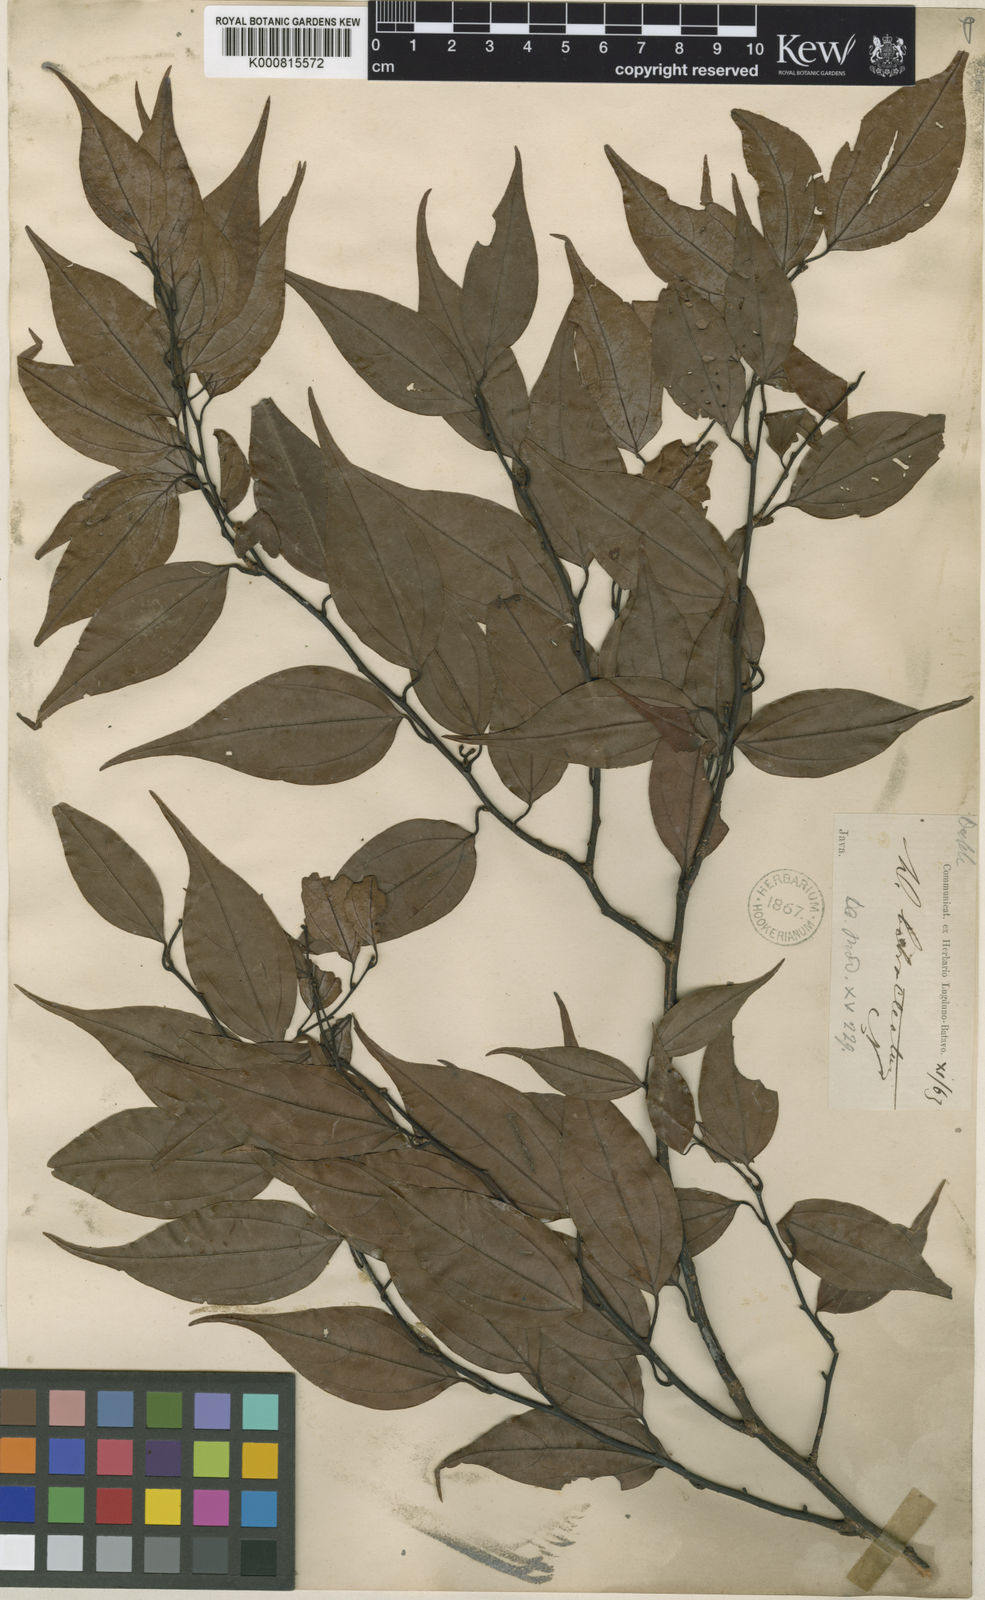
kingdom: Plantae
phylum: Tracheophyta
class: Magnoliopsida
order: Laurales
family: Lauraceae
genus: Lindera
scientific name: Lindera bibracteata
